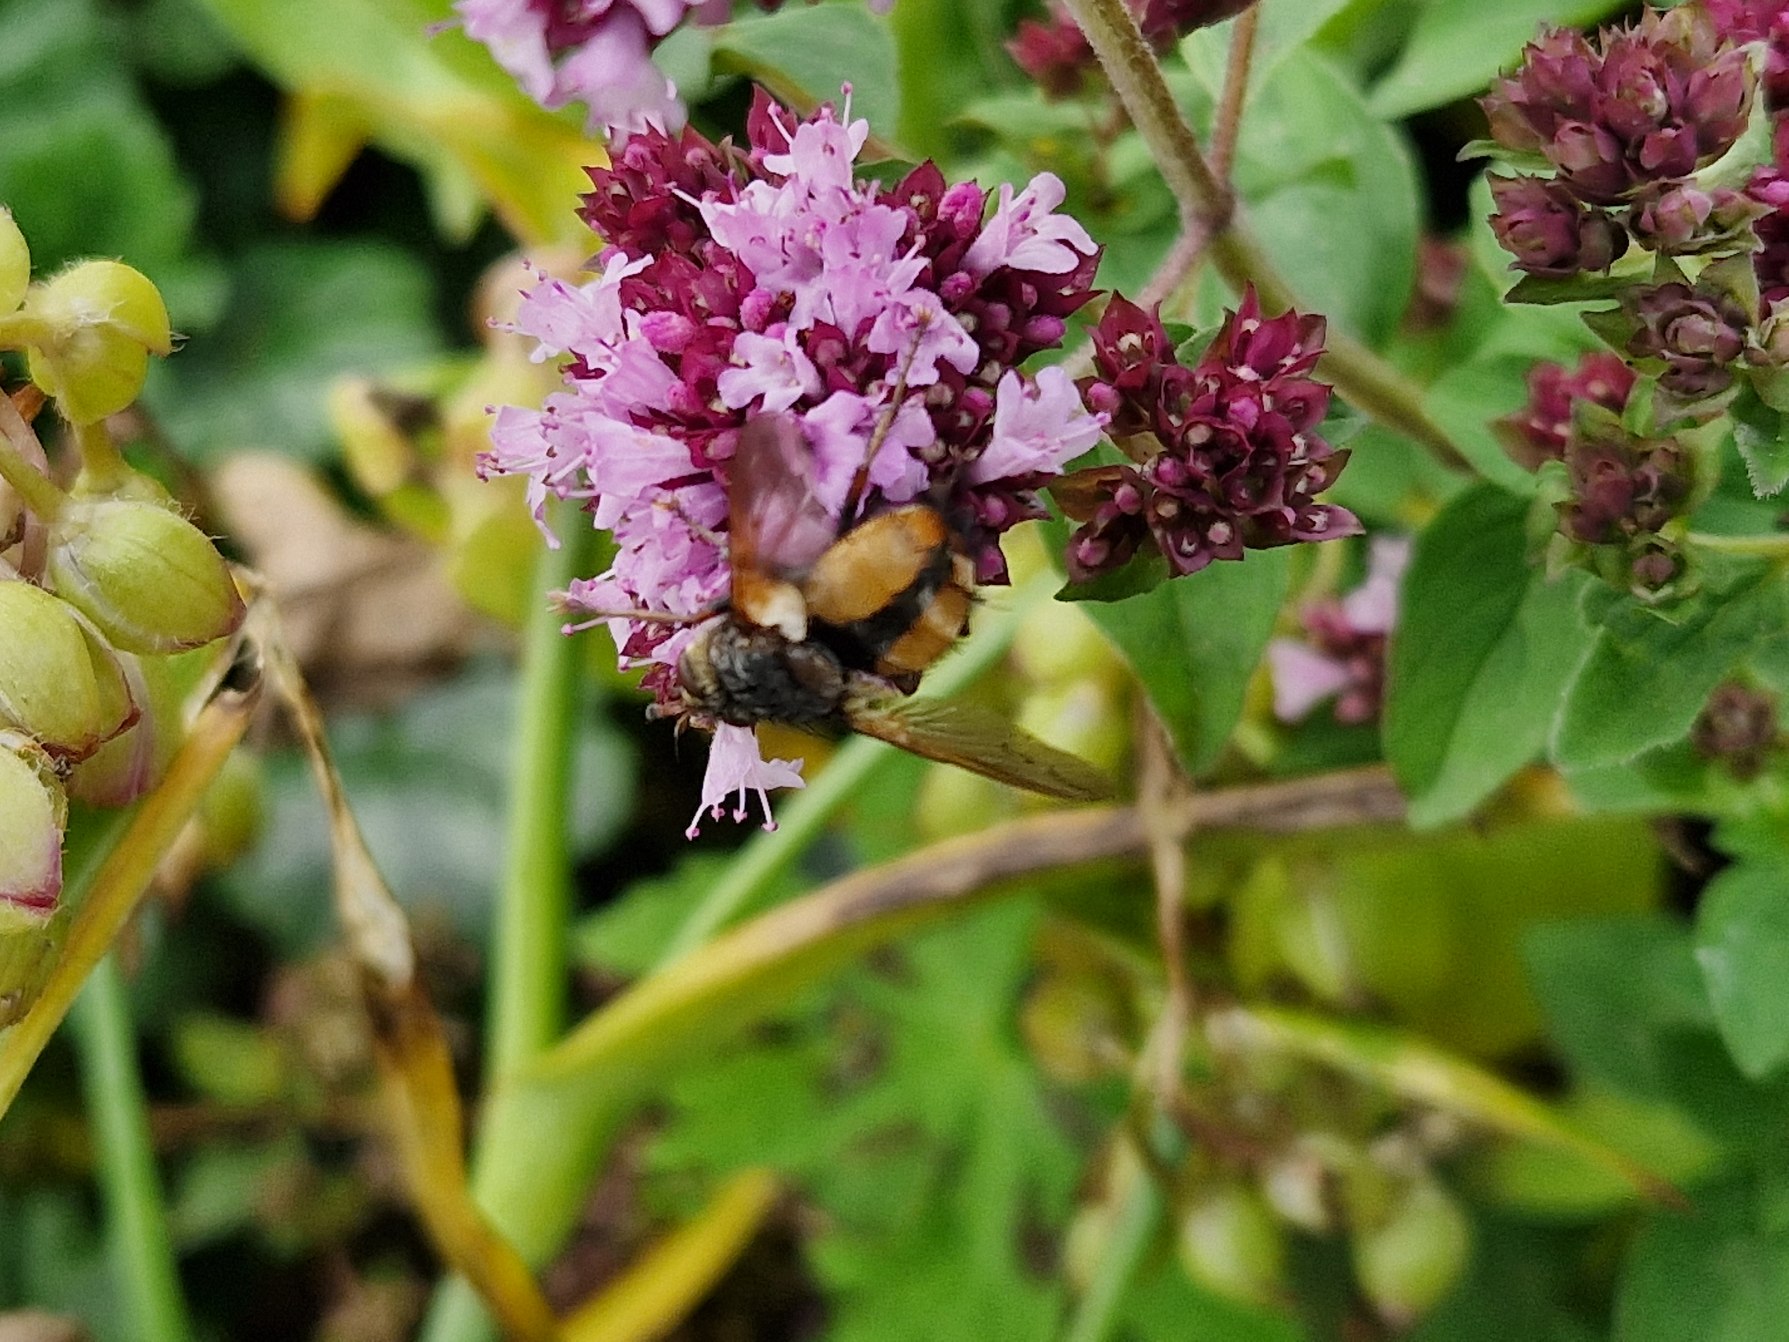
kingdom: Animalia
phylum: Arthropoda
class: Insecta
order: Diptera
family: Tachinidae
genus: Tachina
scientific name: Tachina fera
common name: Mellemfluen oskar
